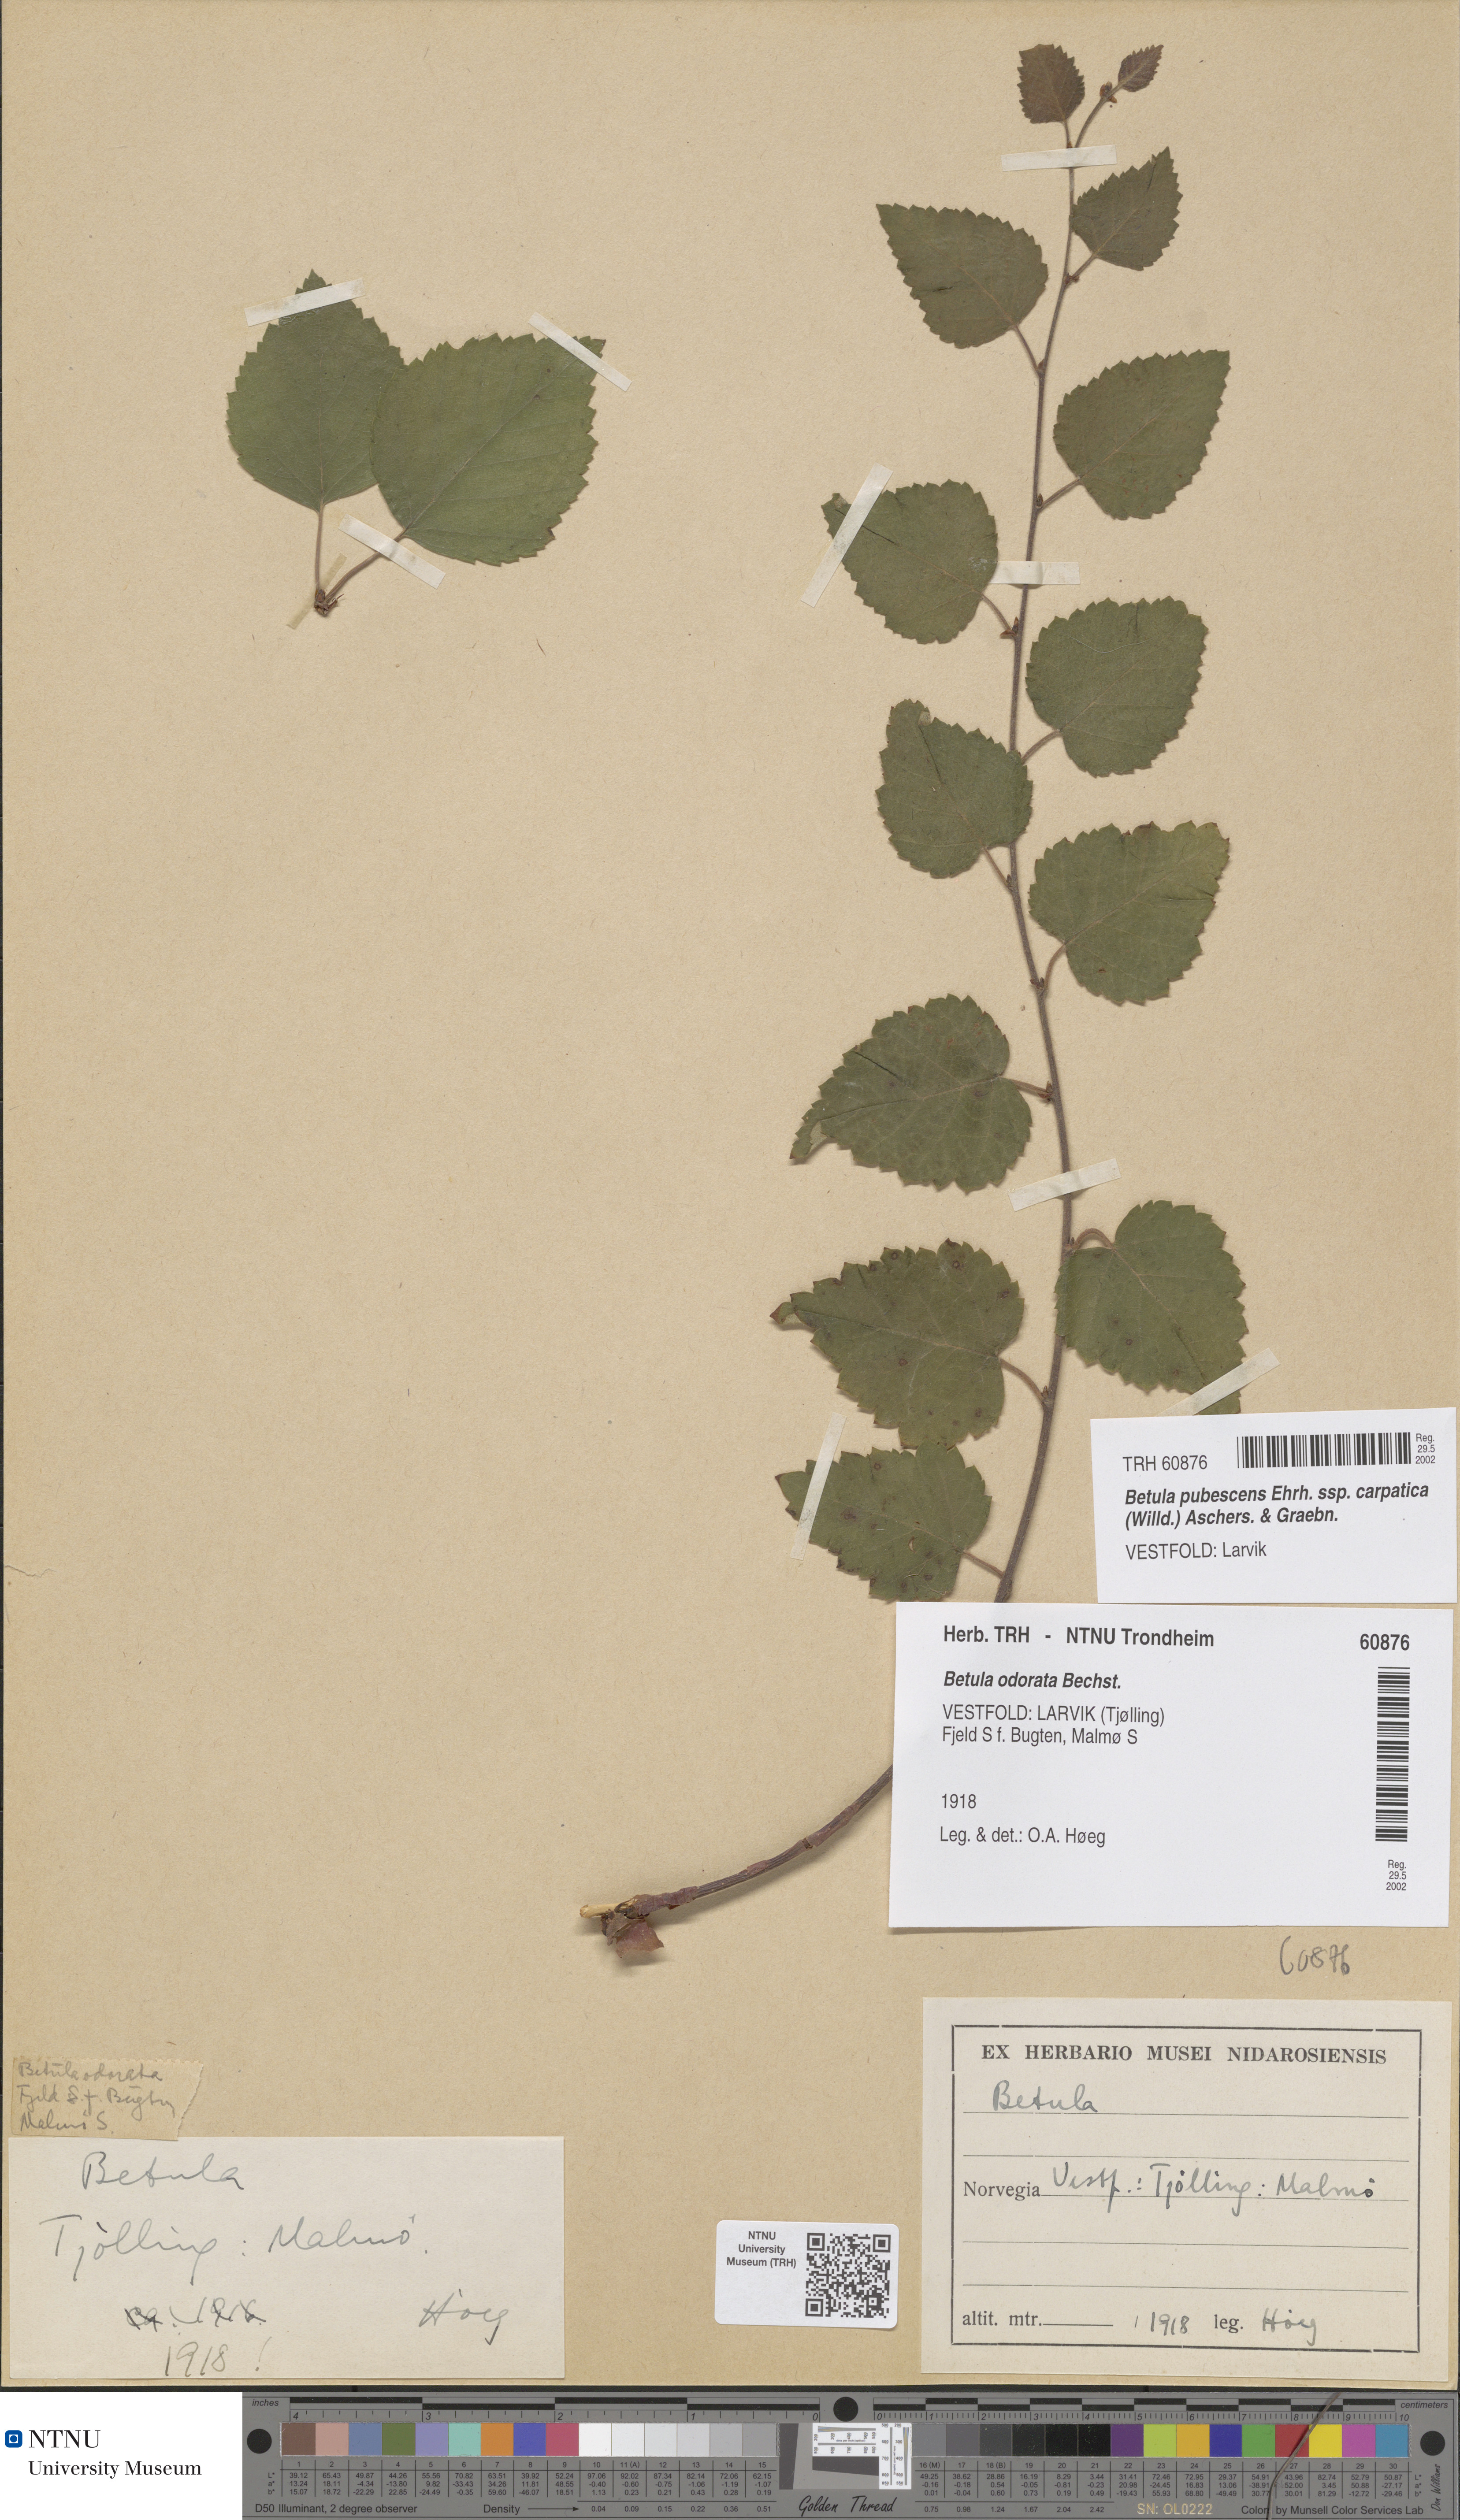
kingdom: Plantae
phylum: Tracheophyta
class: Magnoliopsida
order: Fagales
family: Betulaceae
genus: Betula
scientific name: Betula pubescens
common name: Downy birch
